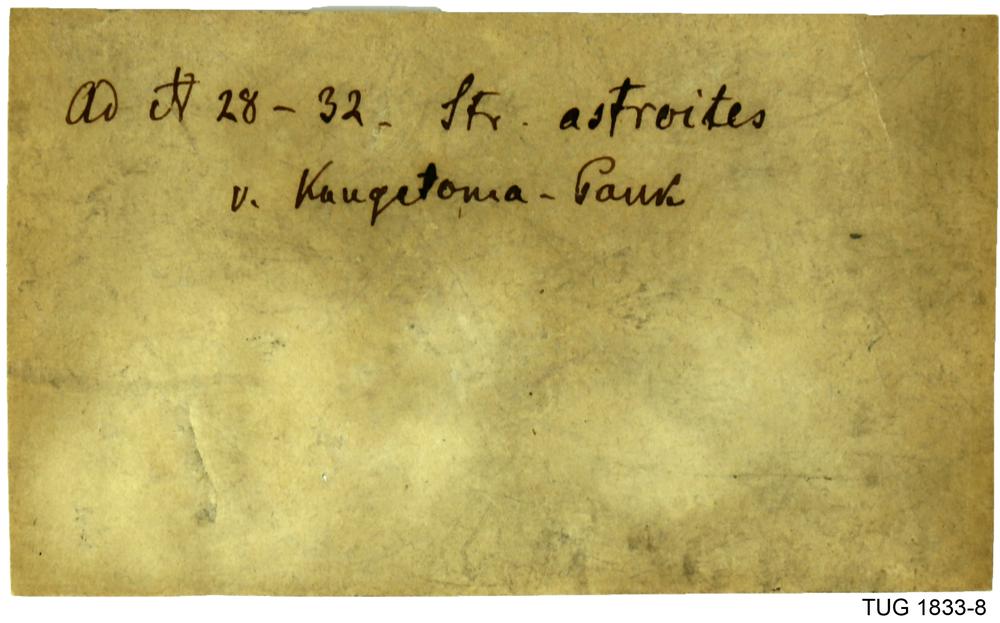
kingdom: Animalia
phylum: Porifera
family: Densastromatidae
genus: Densastroma
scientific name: Densastroma
